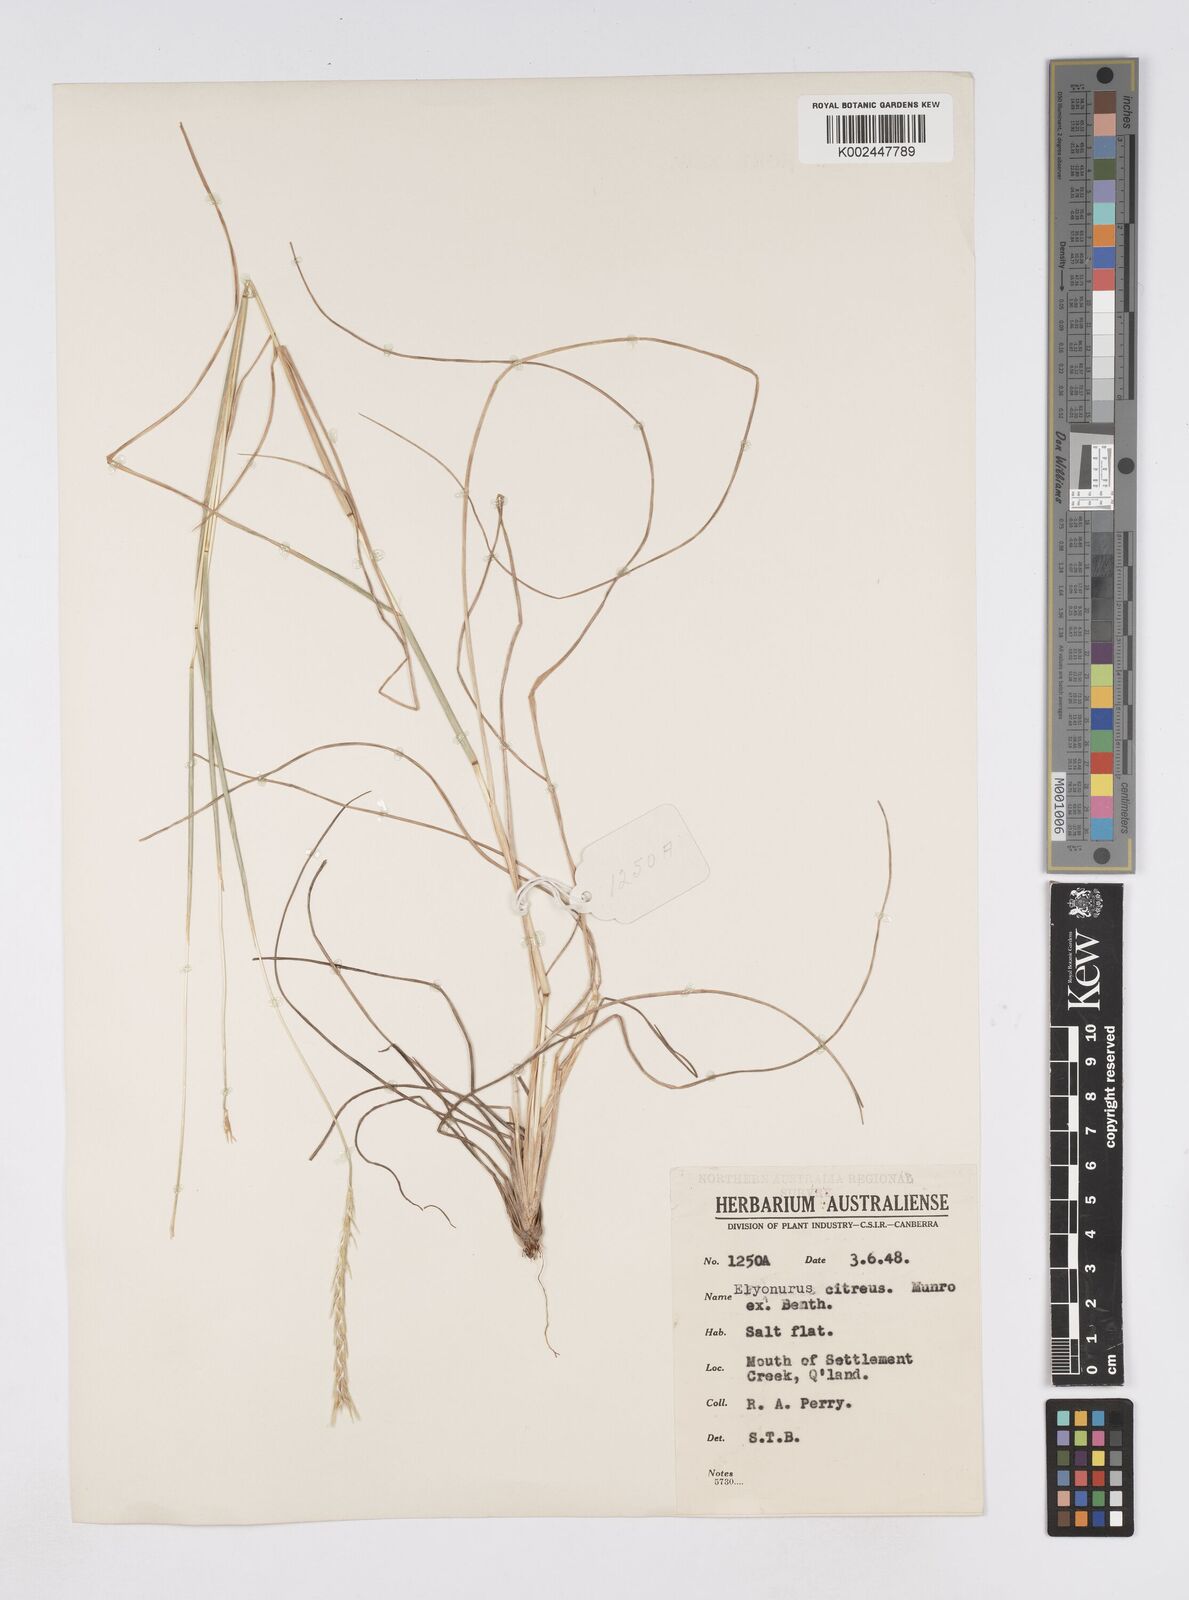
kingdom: Plantae
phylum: Tracheophyta
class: Liliopsida
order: Poales
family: Poaceae
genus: Elionurus
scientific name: Elionurus citreus
